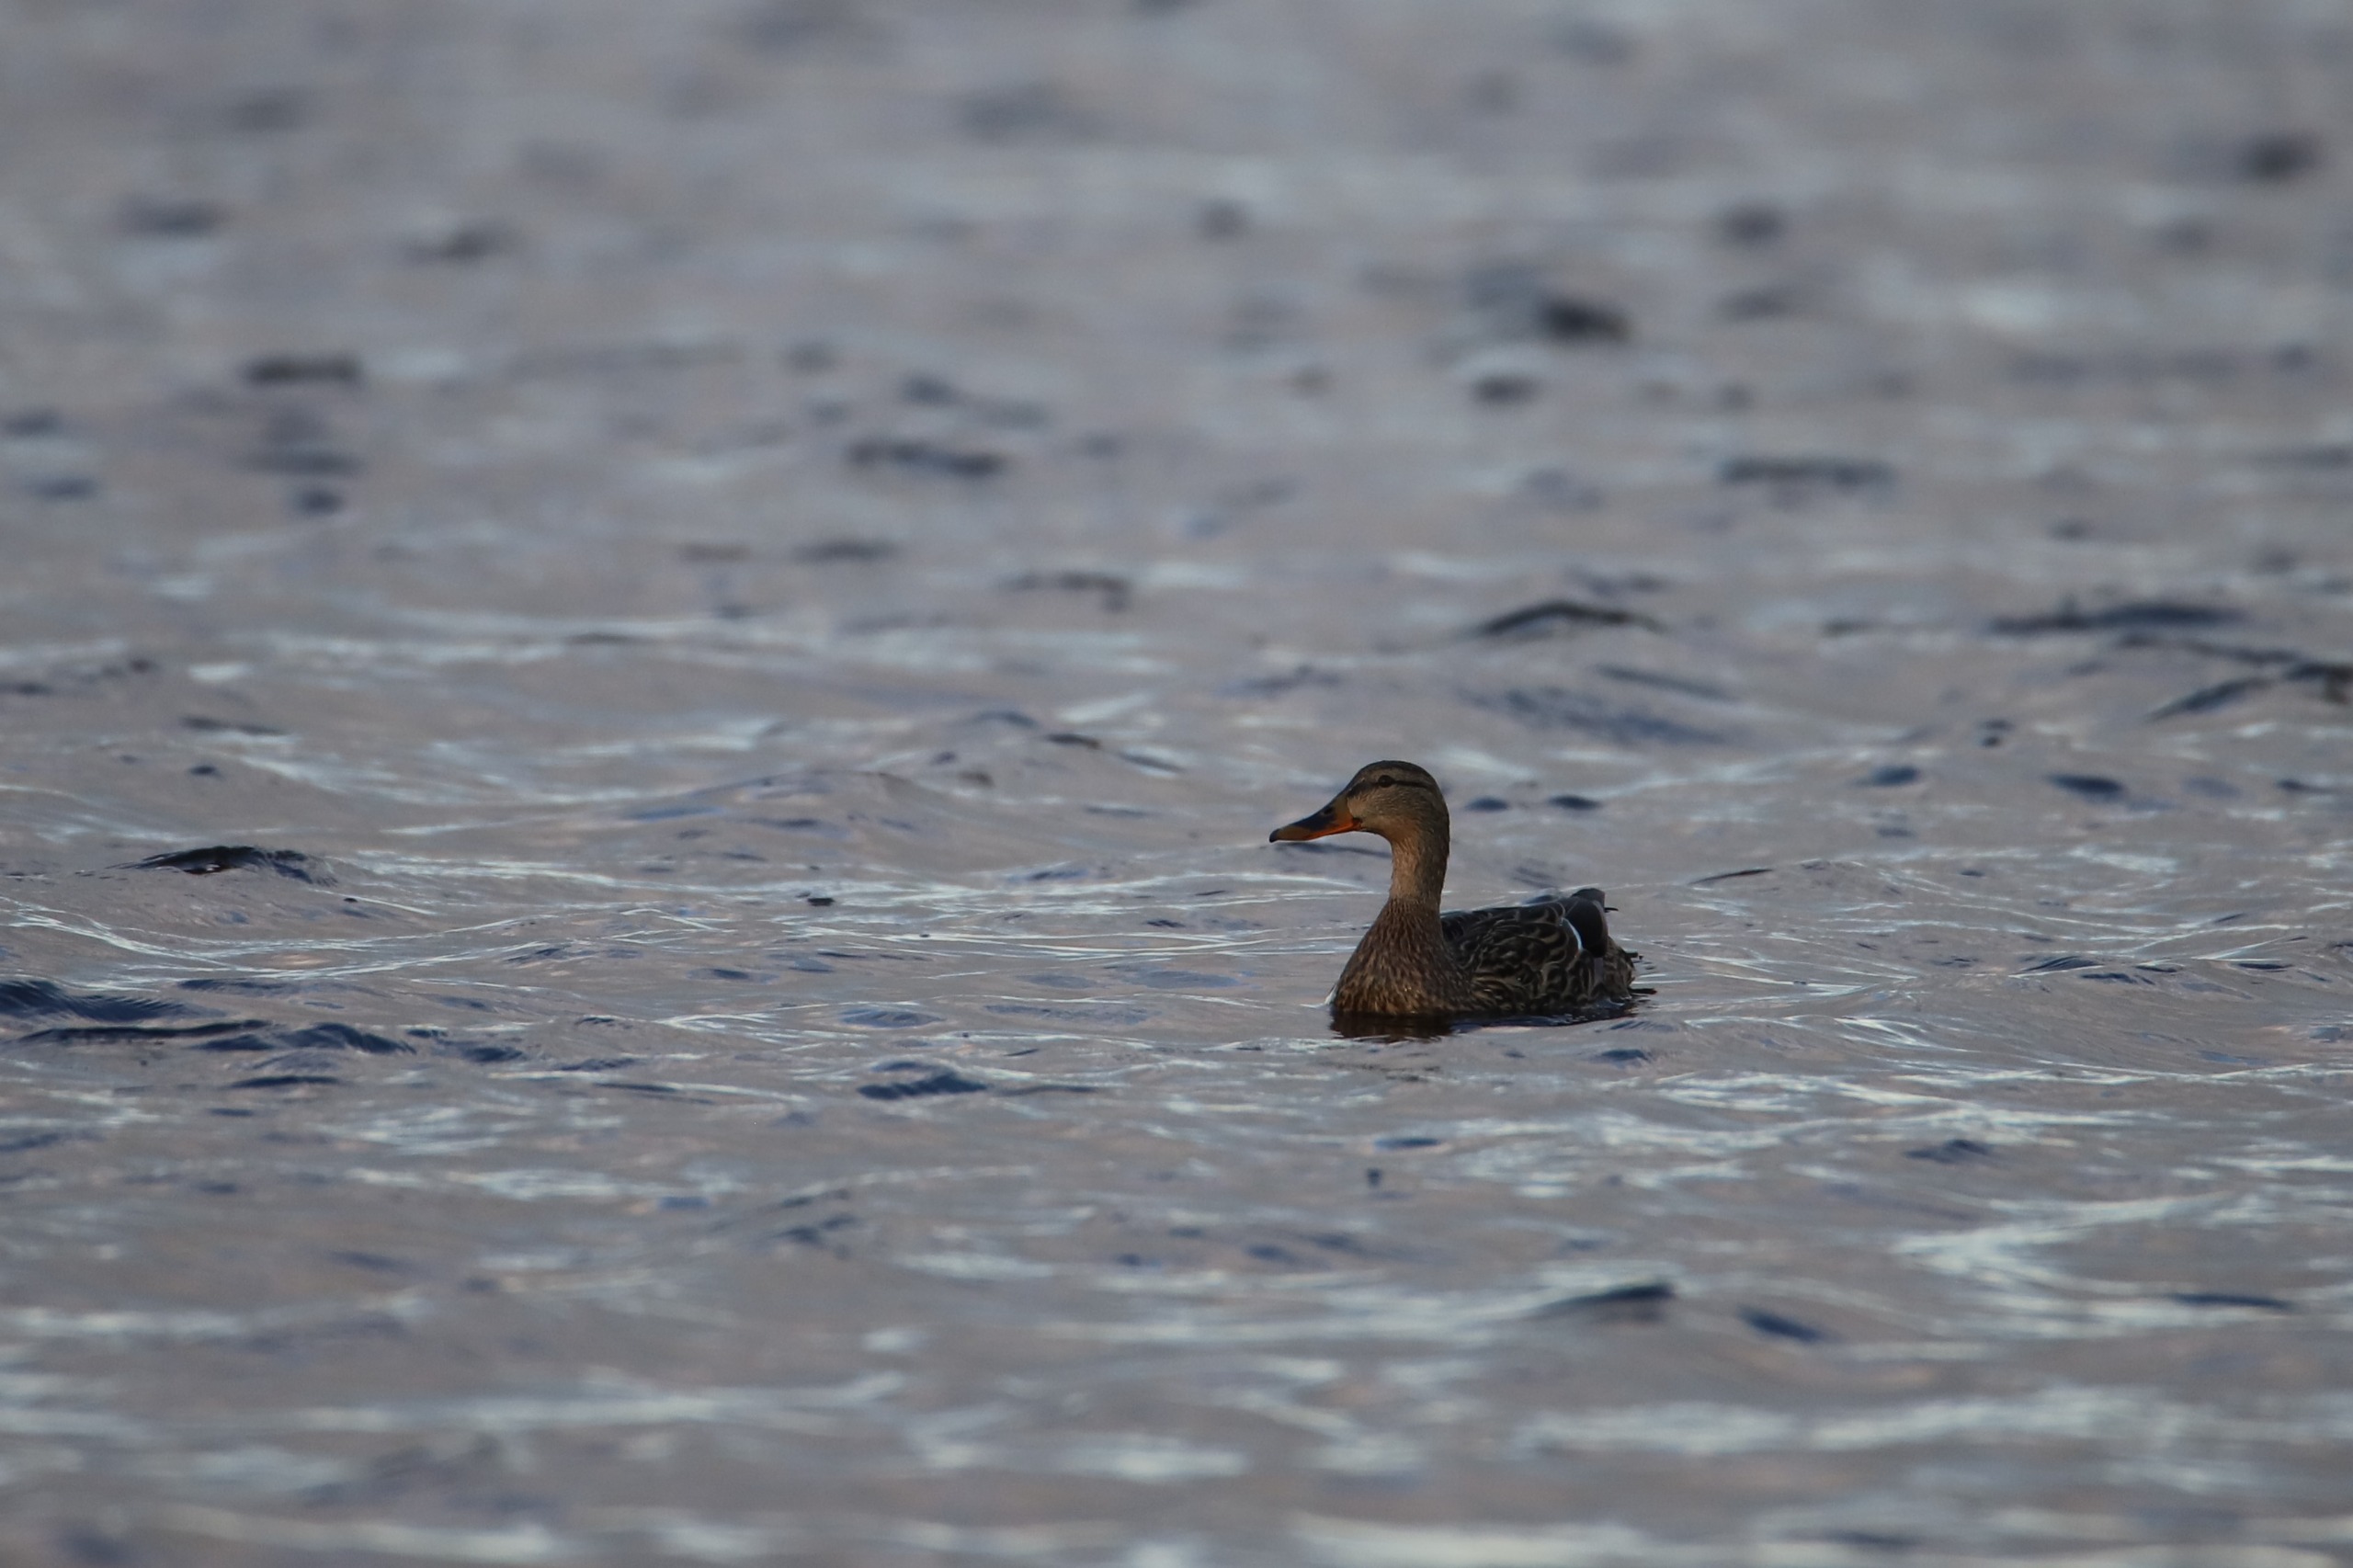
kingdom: Animalia
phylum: Chordata
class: Aves
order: Anseriformes
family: Anatidae
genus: Anas
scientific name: Anas platyrhynchos
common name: Gråand
